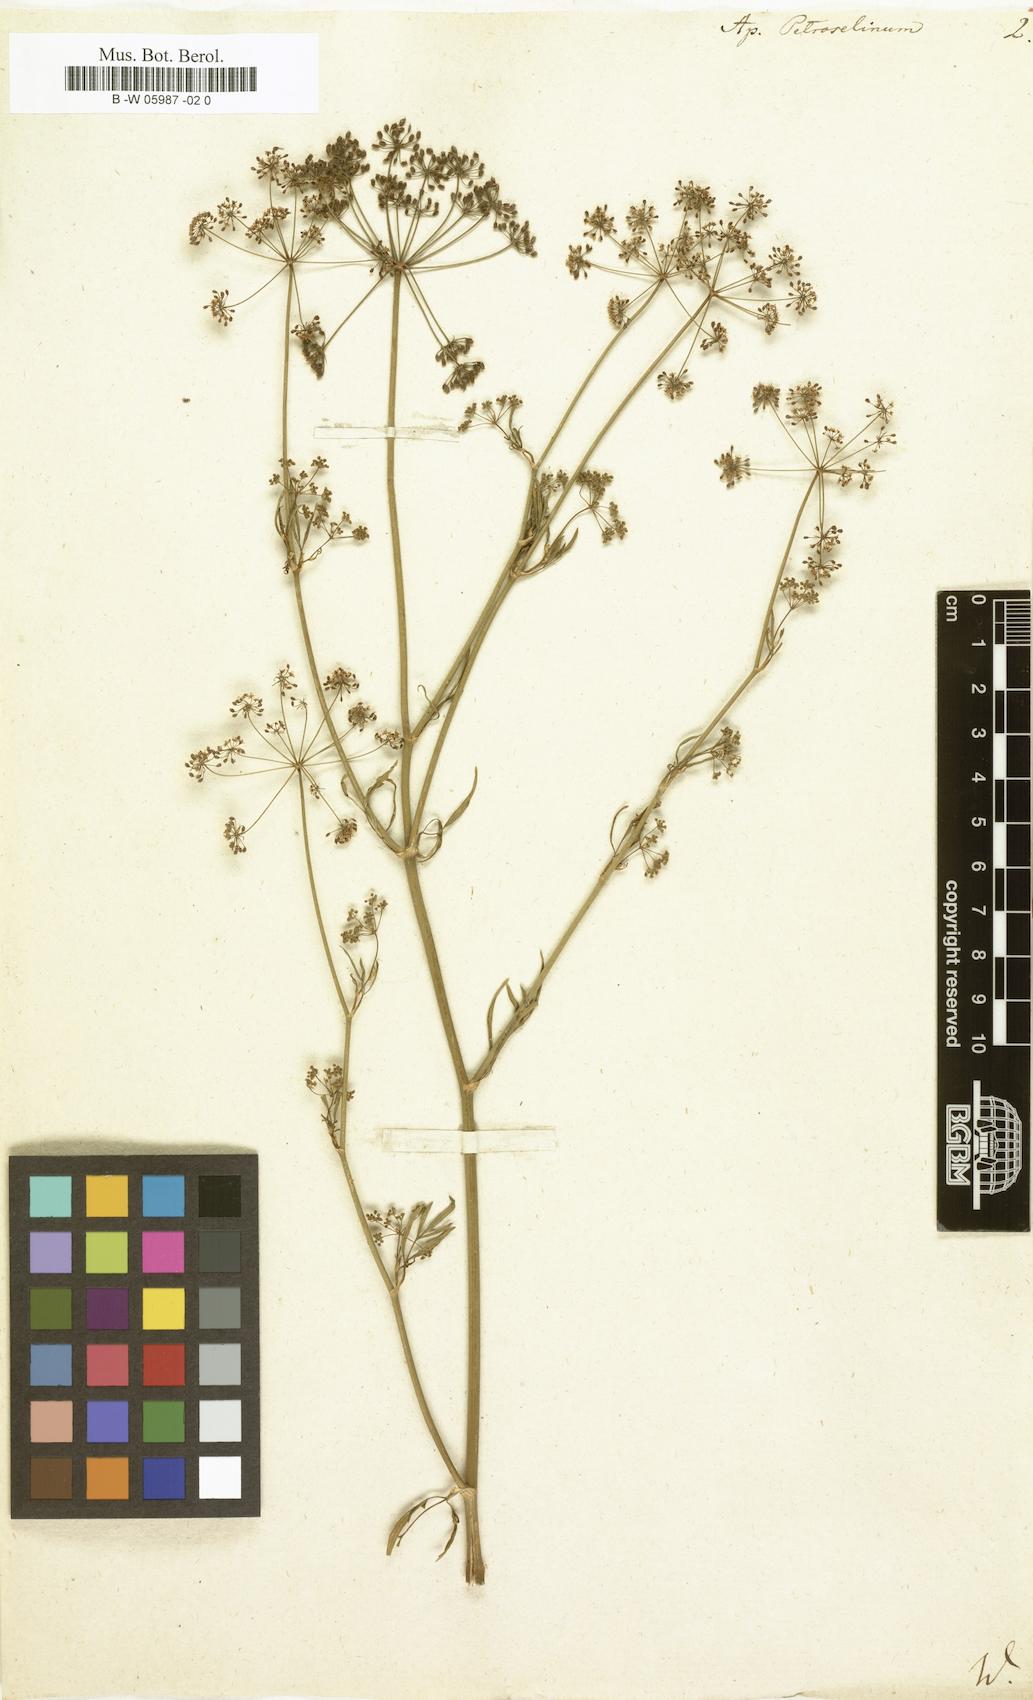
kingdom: Plantae
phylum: Tracheophyta
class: Magnoliopsida
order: Apiales
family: Apiaceae
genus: Petroselinum
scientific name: Petroselinum crispum
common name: Parsley
